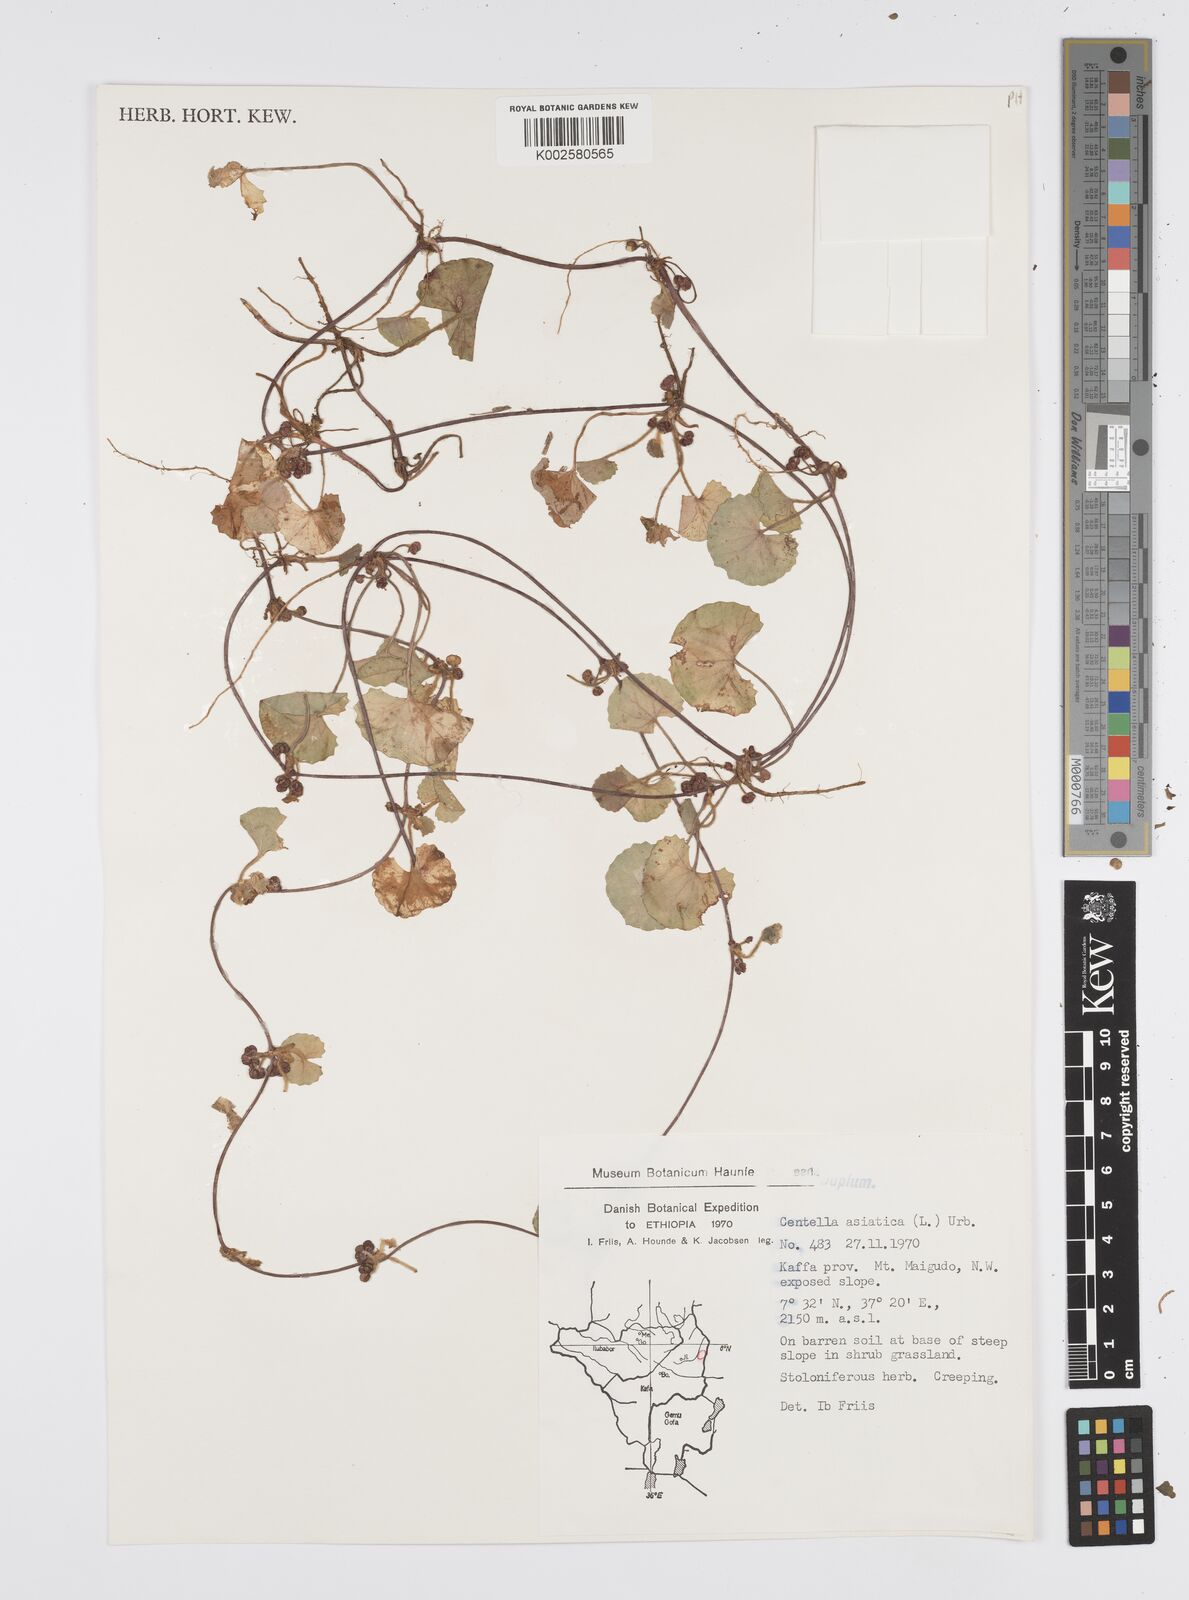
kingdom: Plantae
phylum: Tracheophyta
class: Magnoliopsida
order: Apiales
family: Apiaceae
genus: Centella
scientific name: Centella asiatica
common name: Spadeleaf
